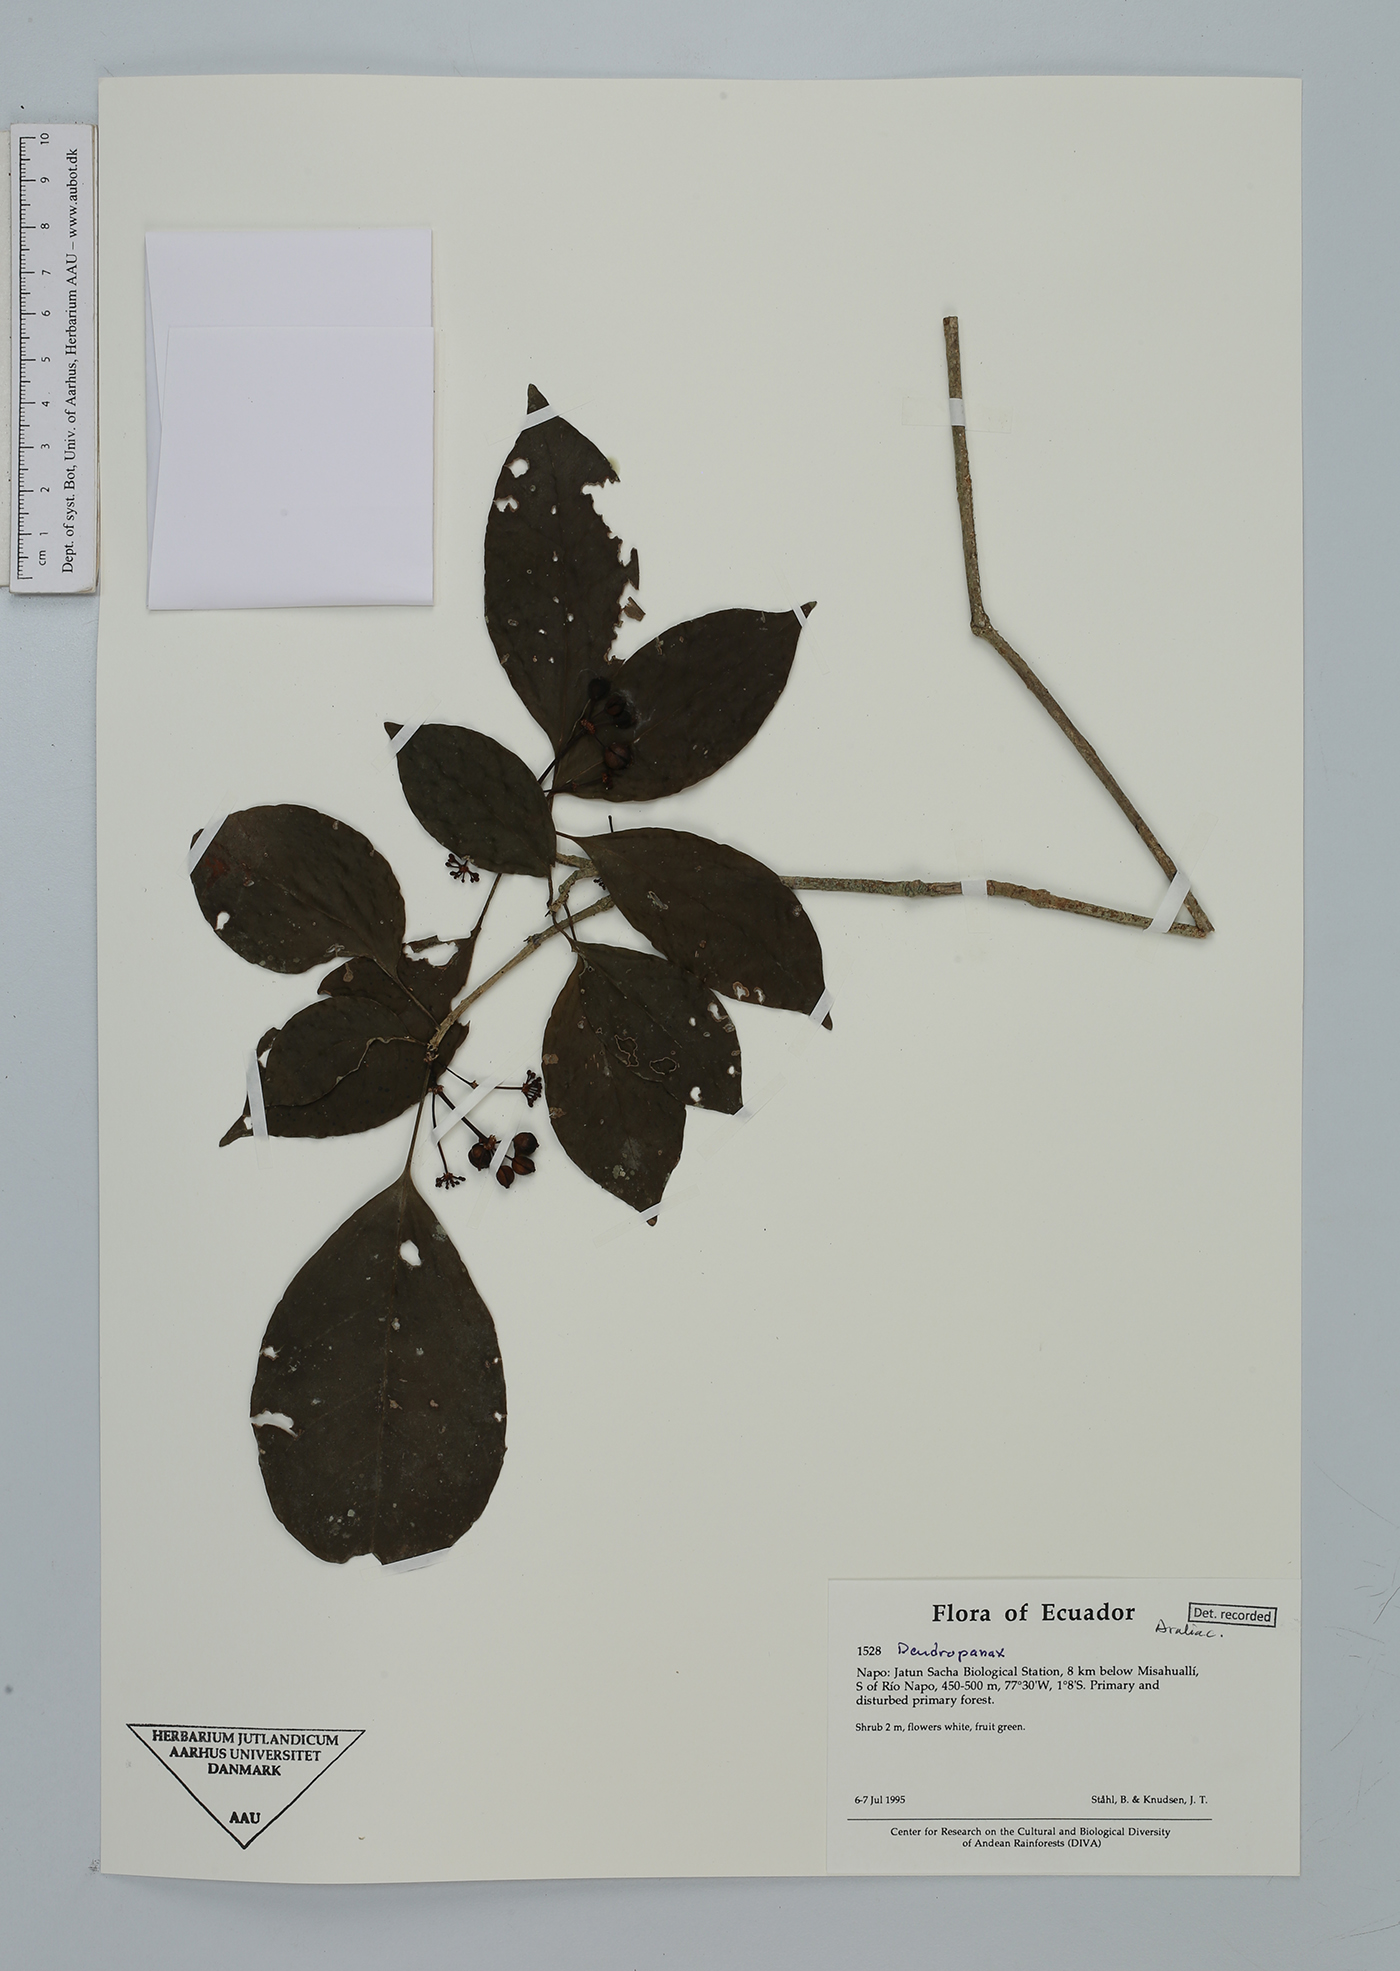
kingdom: Plantae
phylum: Tracheophyta
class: Magnoliopsida
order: Apiales
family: Araliaceae
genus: Dendropanax
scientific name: Dendropanax
